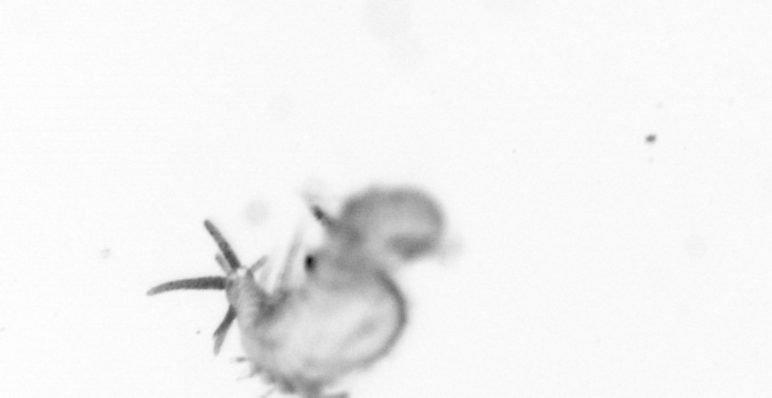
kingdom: Animalia
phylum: Annelida
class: Polychaeta
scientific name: Polychaeta
